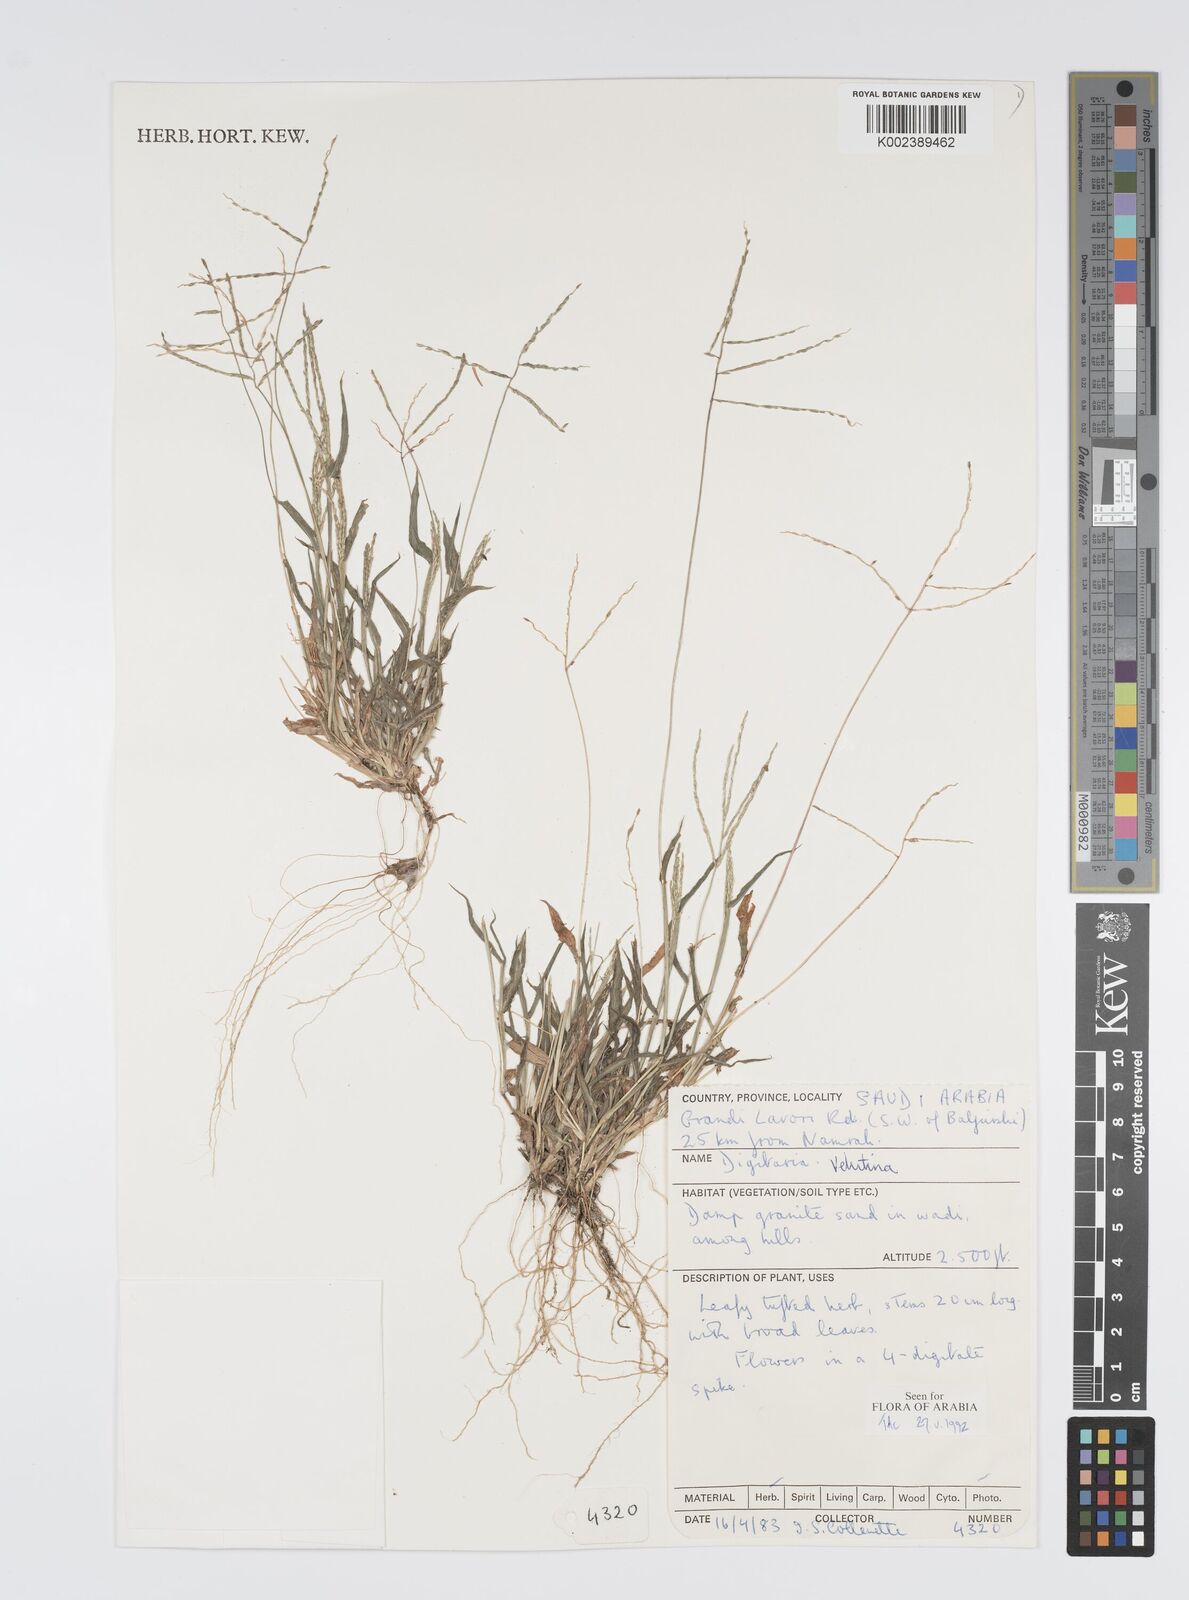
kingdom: Plantae
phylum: Tracheophyta
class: Liliopsida
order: Poales
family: Poaceae
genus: Digitaria
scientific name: Digitaria spec
